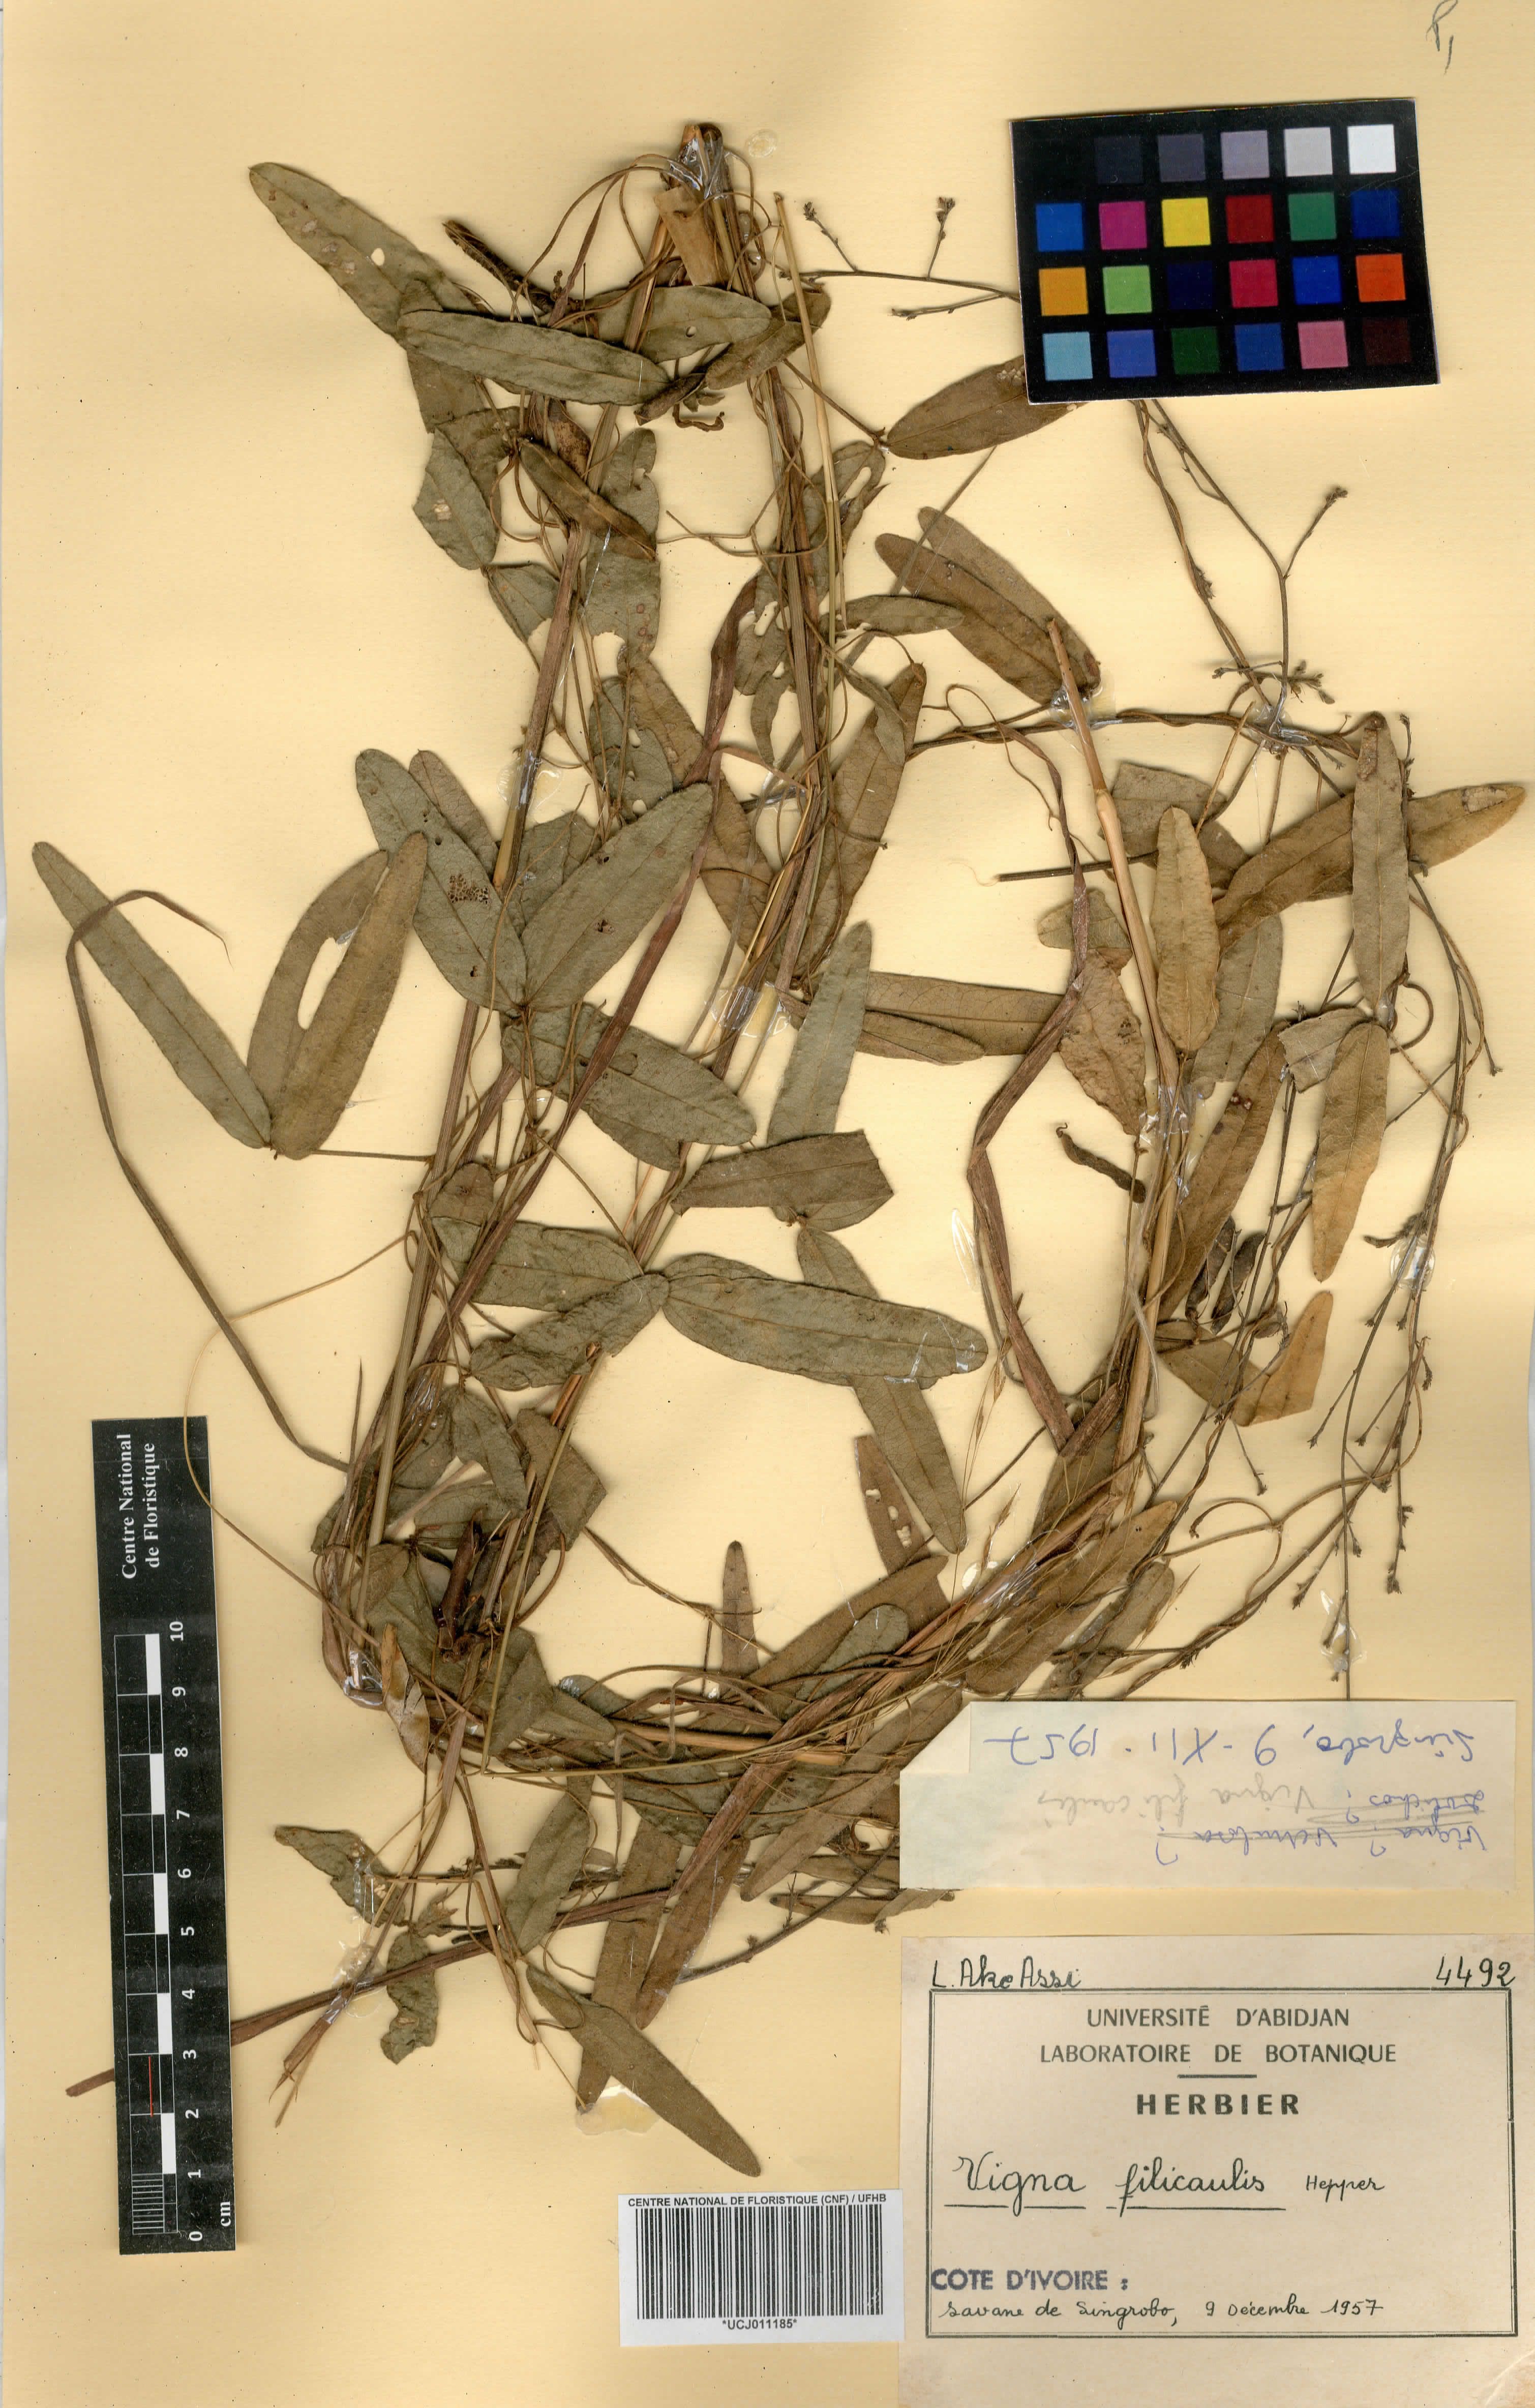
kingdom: Plantae
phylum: Tracheophyta
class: Magnoliopsida
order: Fabales
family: Fabaceae
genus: Vigna
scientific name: Vigna filicaulis
